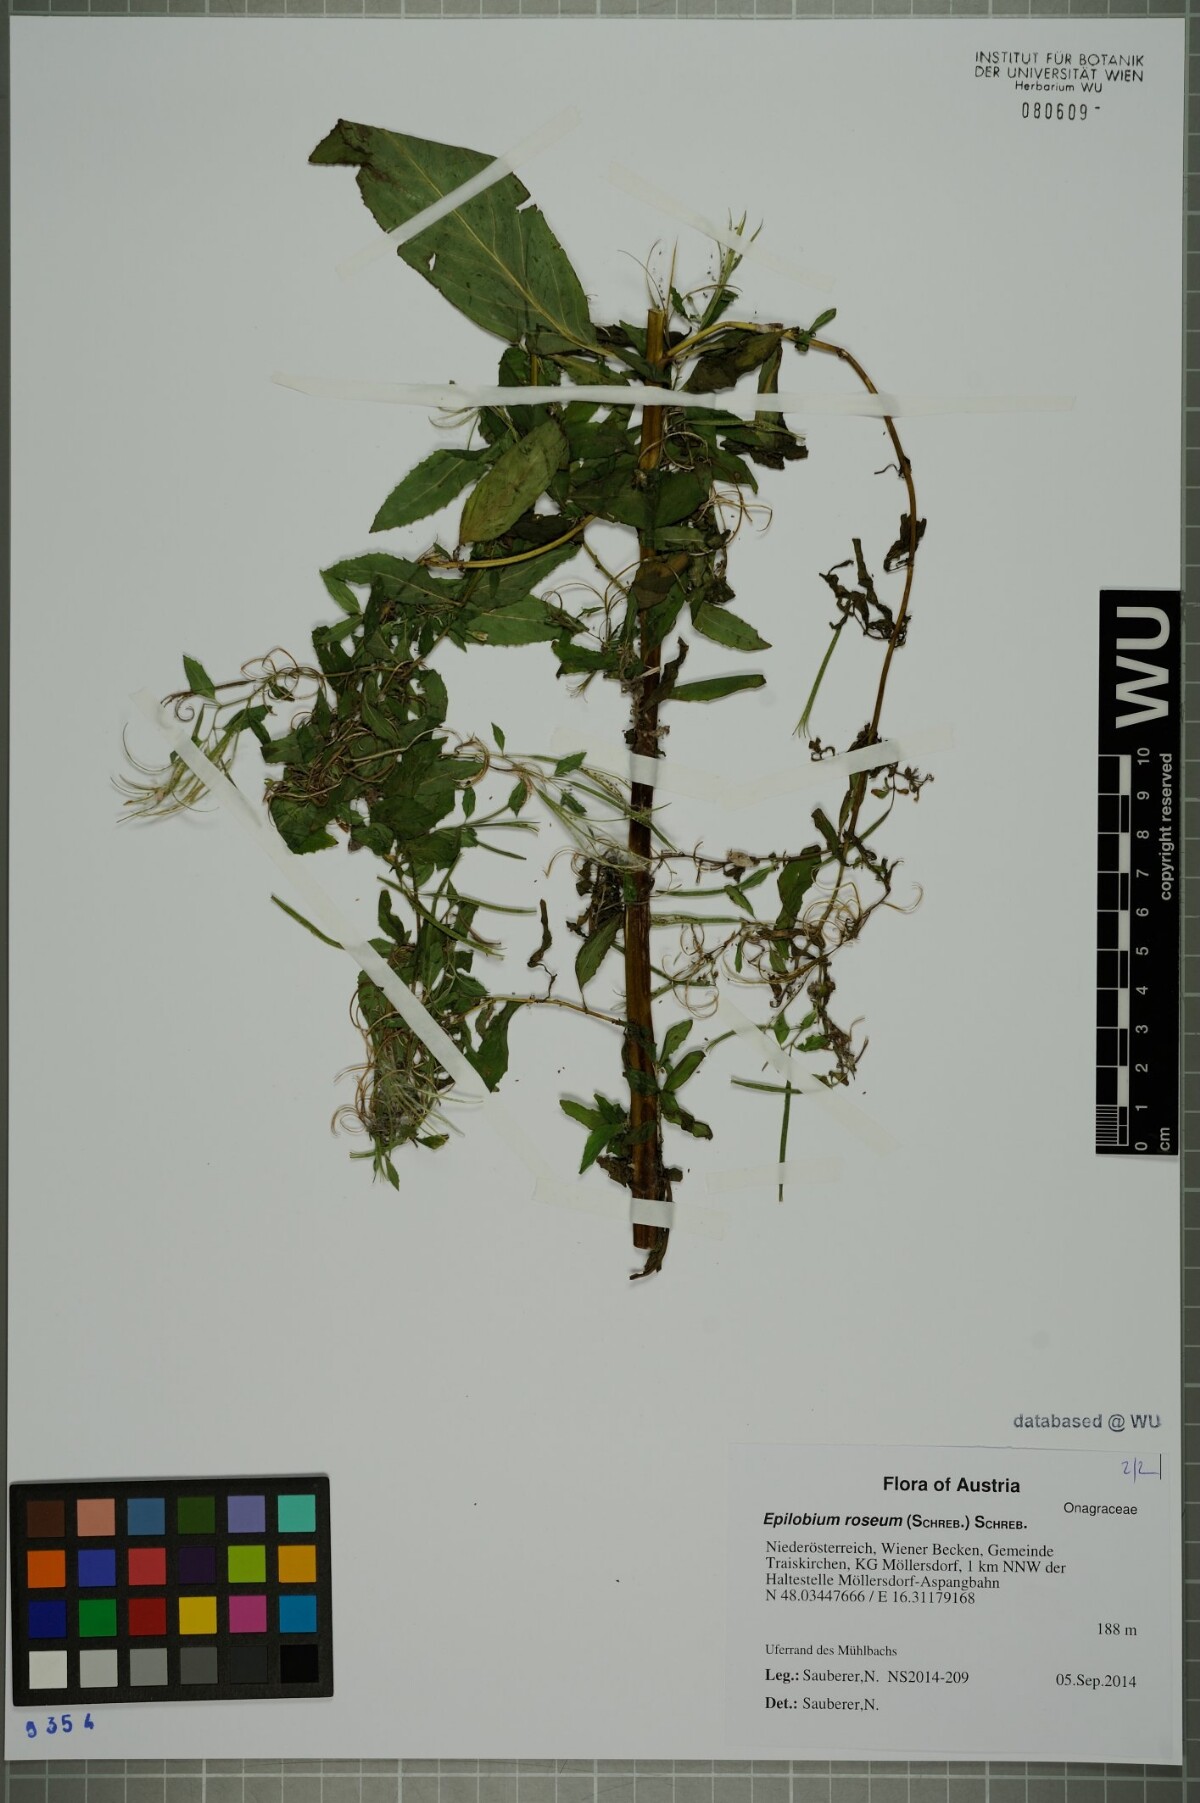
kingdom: Plantae
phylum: Tracheophyta
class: Magnoliopsida
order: Myrtales
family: Onagraceae
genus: Epilobium
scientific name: Epilobium roseum
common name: Pale willowherb
